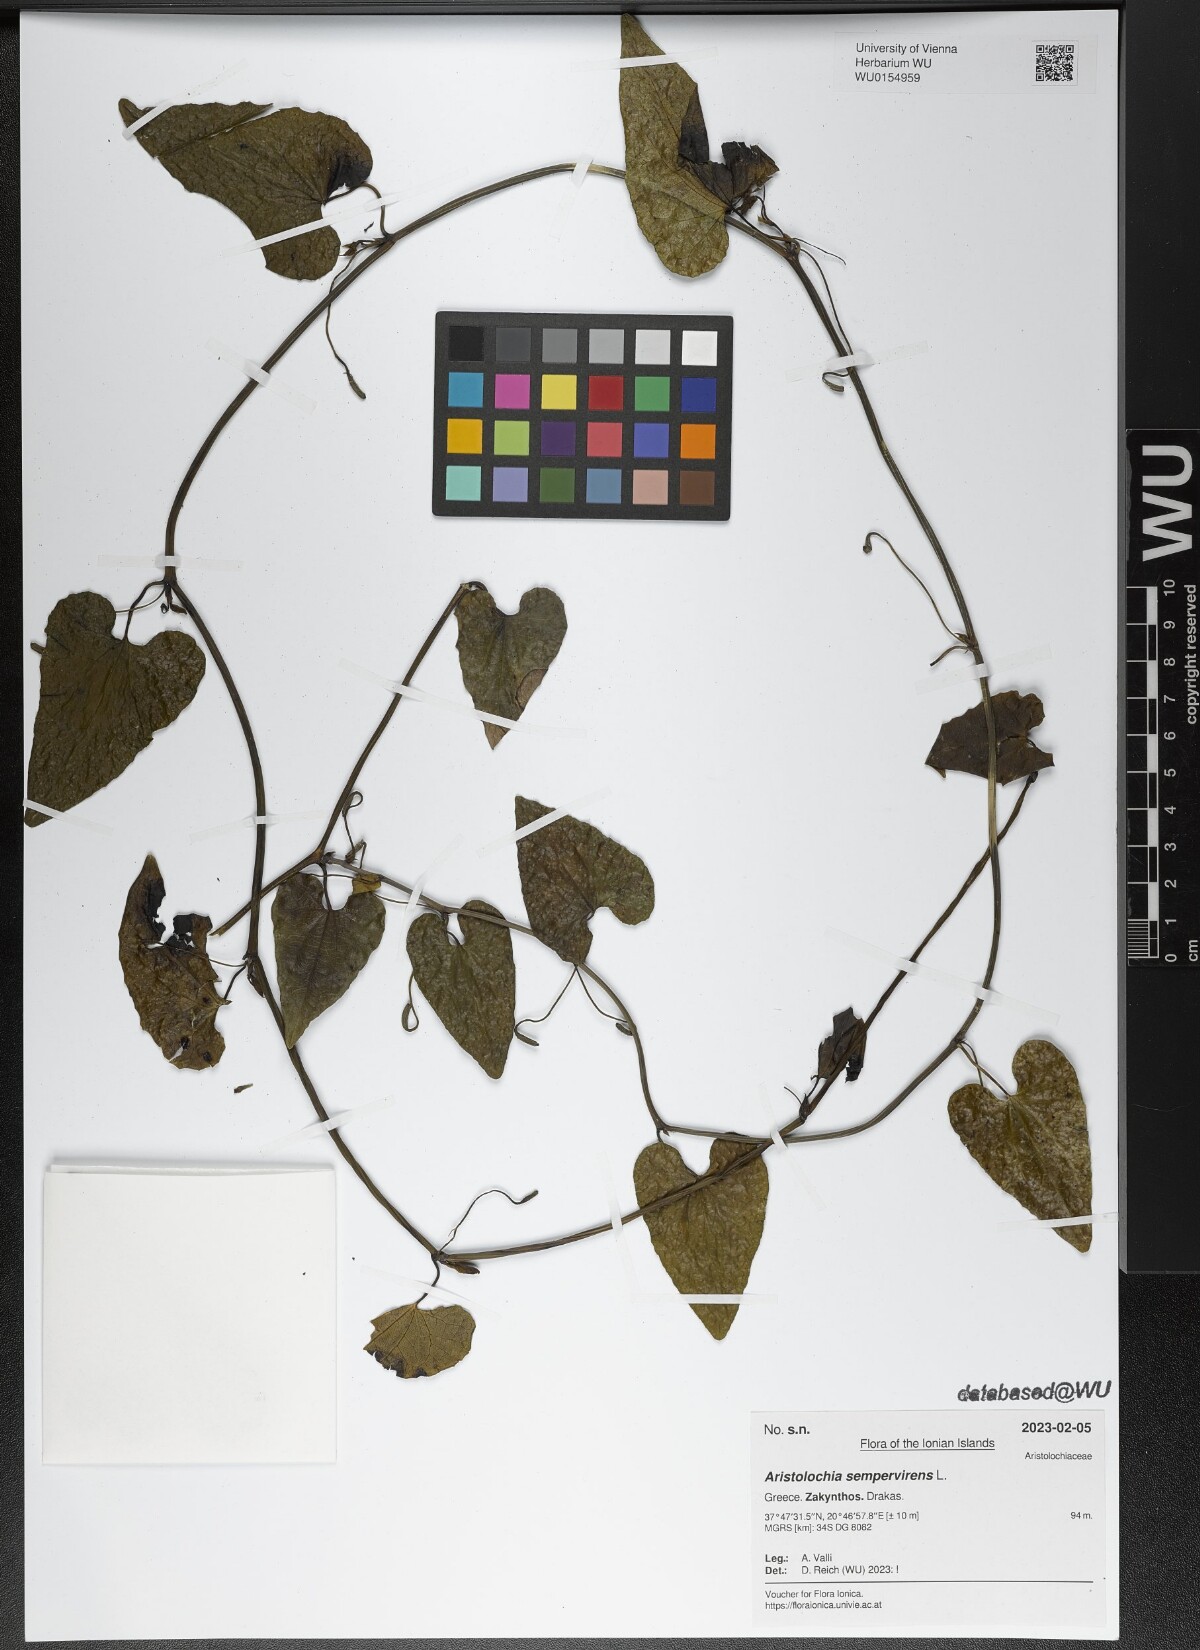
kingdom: Plantae
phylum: Tracheophyta
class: Magnoliopsida
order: Piperales
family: Aristolochiaceae
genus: Aristolochia
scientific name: Aristolochia sempervirens
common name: Long birthwort
